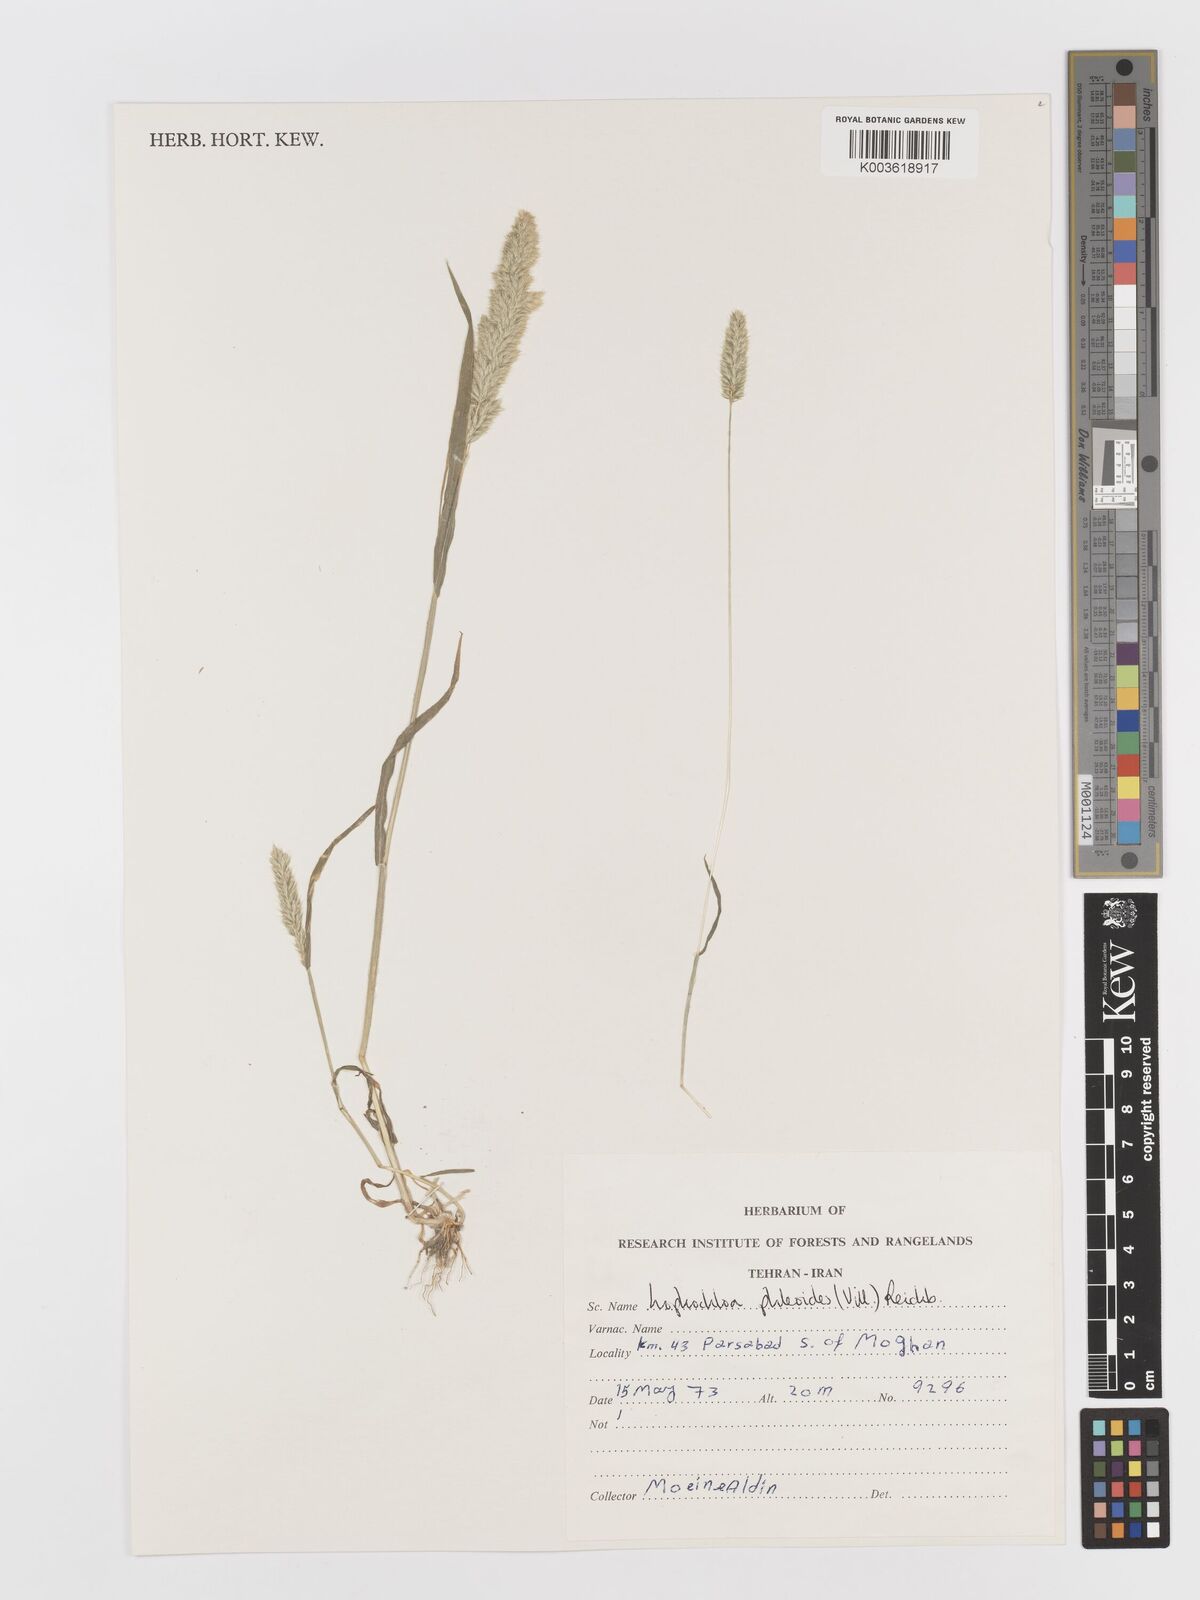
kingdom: Plantae
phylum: Tracheophyta
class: Liliopsida
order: Poales
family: Poaceae
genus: Rostraria
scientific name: Rostraria cristata
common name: Mediterranean hair-grass
